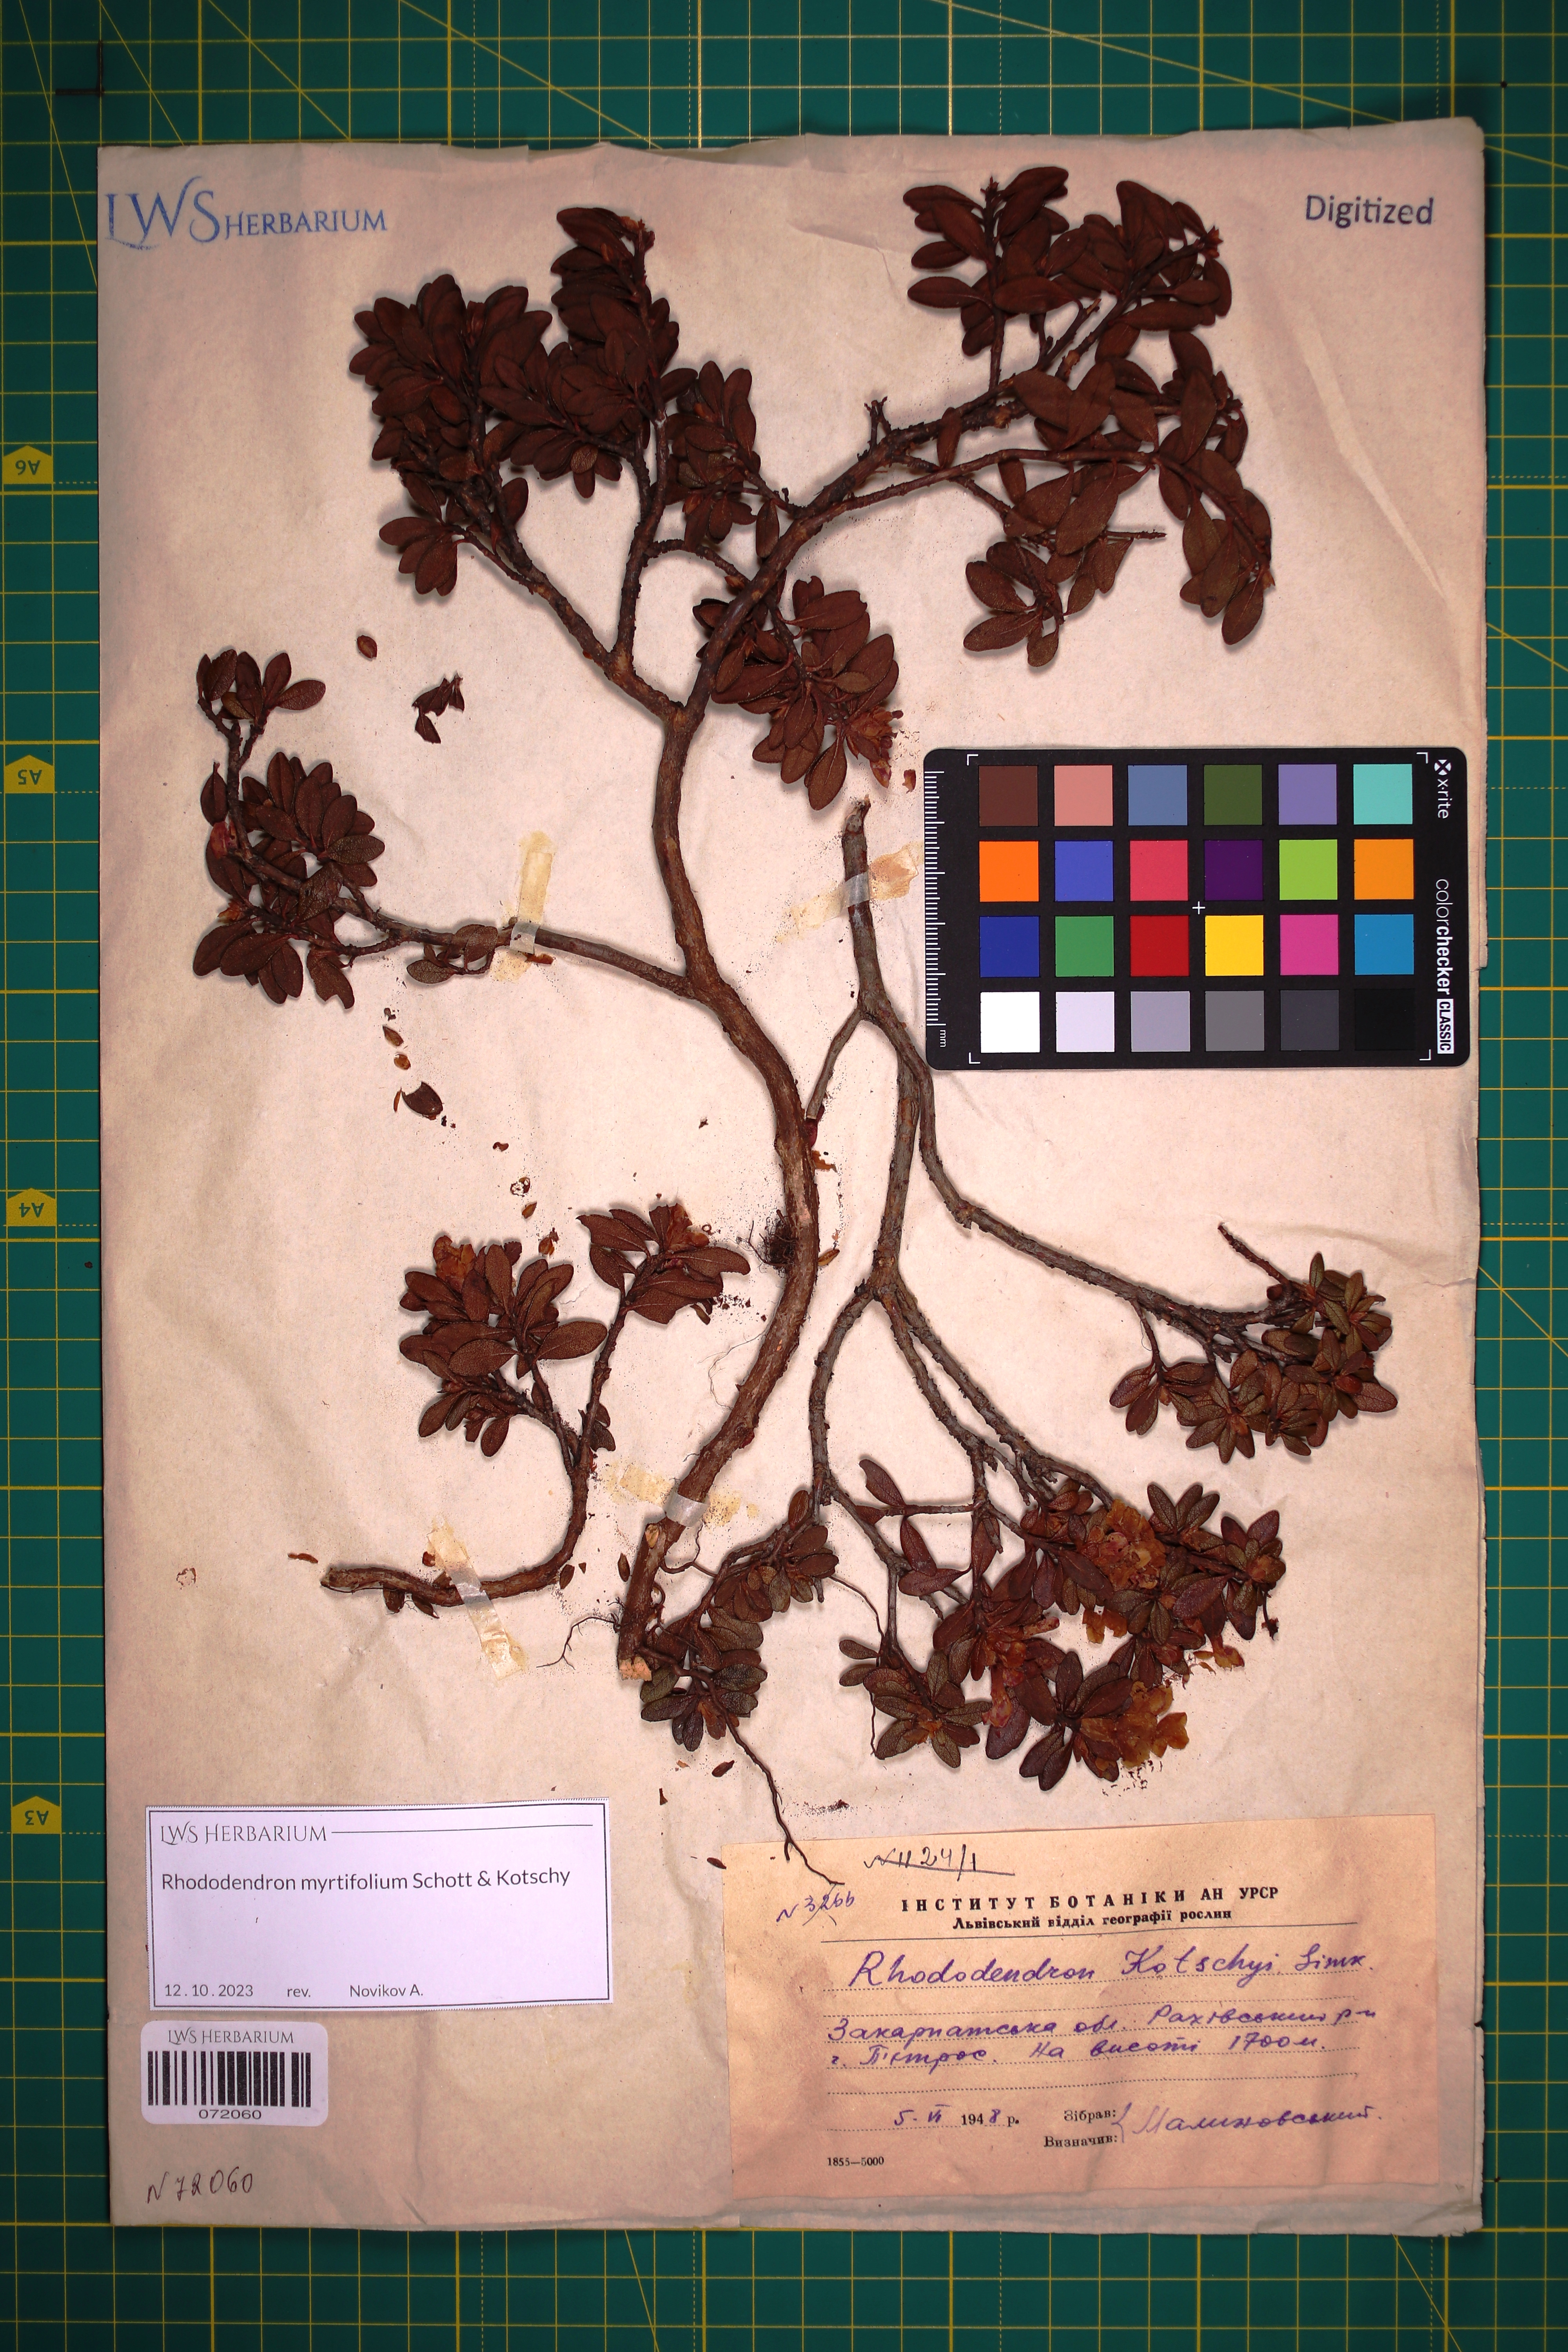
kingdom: Plantae
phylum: Tracheophyta
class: Magnoliopsida
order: Ericales
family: Ericaceae
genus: Rhododendron
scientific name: Rhododendron kotschyi
